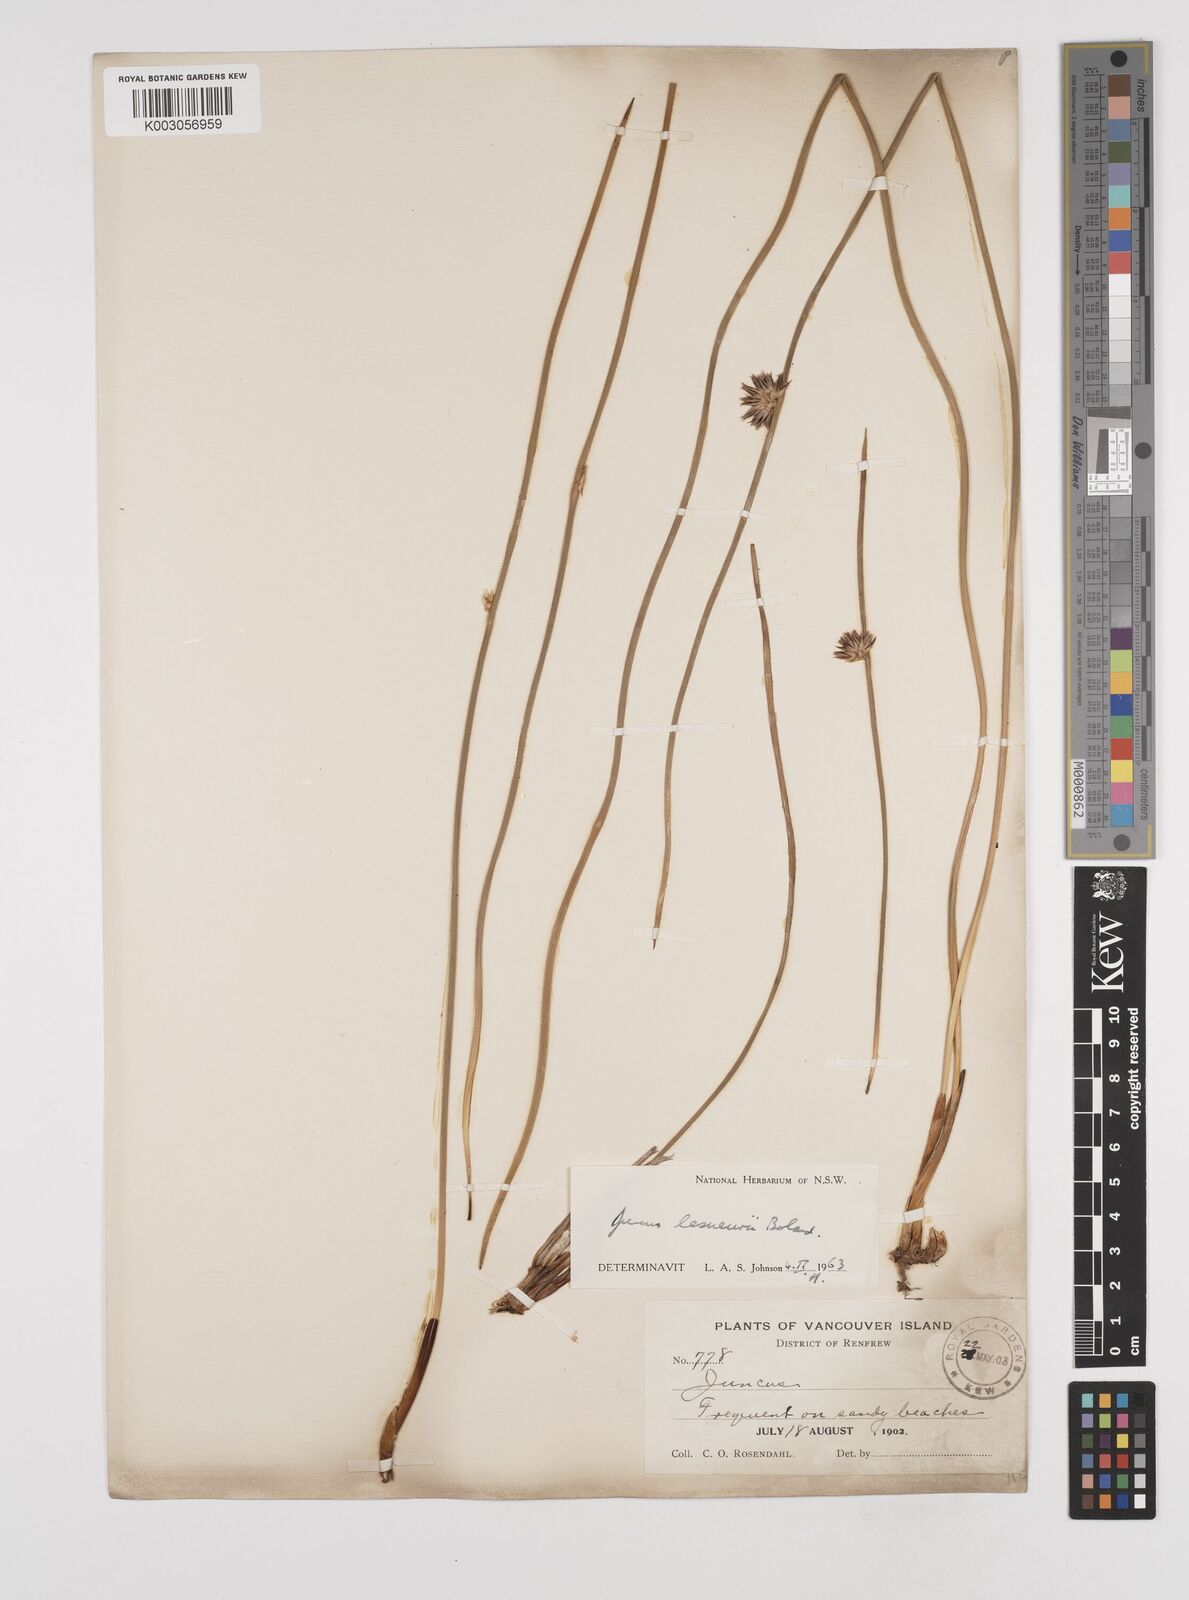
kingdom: Plantae
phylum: Tracheophyta
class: Liliopsida
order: Poales
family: Juncaceae
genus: Juncus
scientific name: Juncus lesueurii
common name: Lesueur's rush
